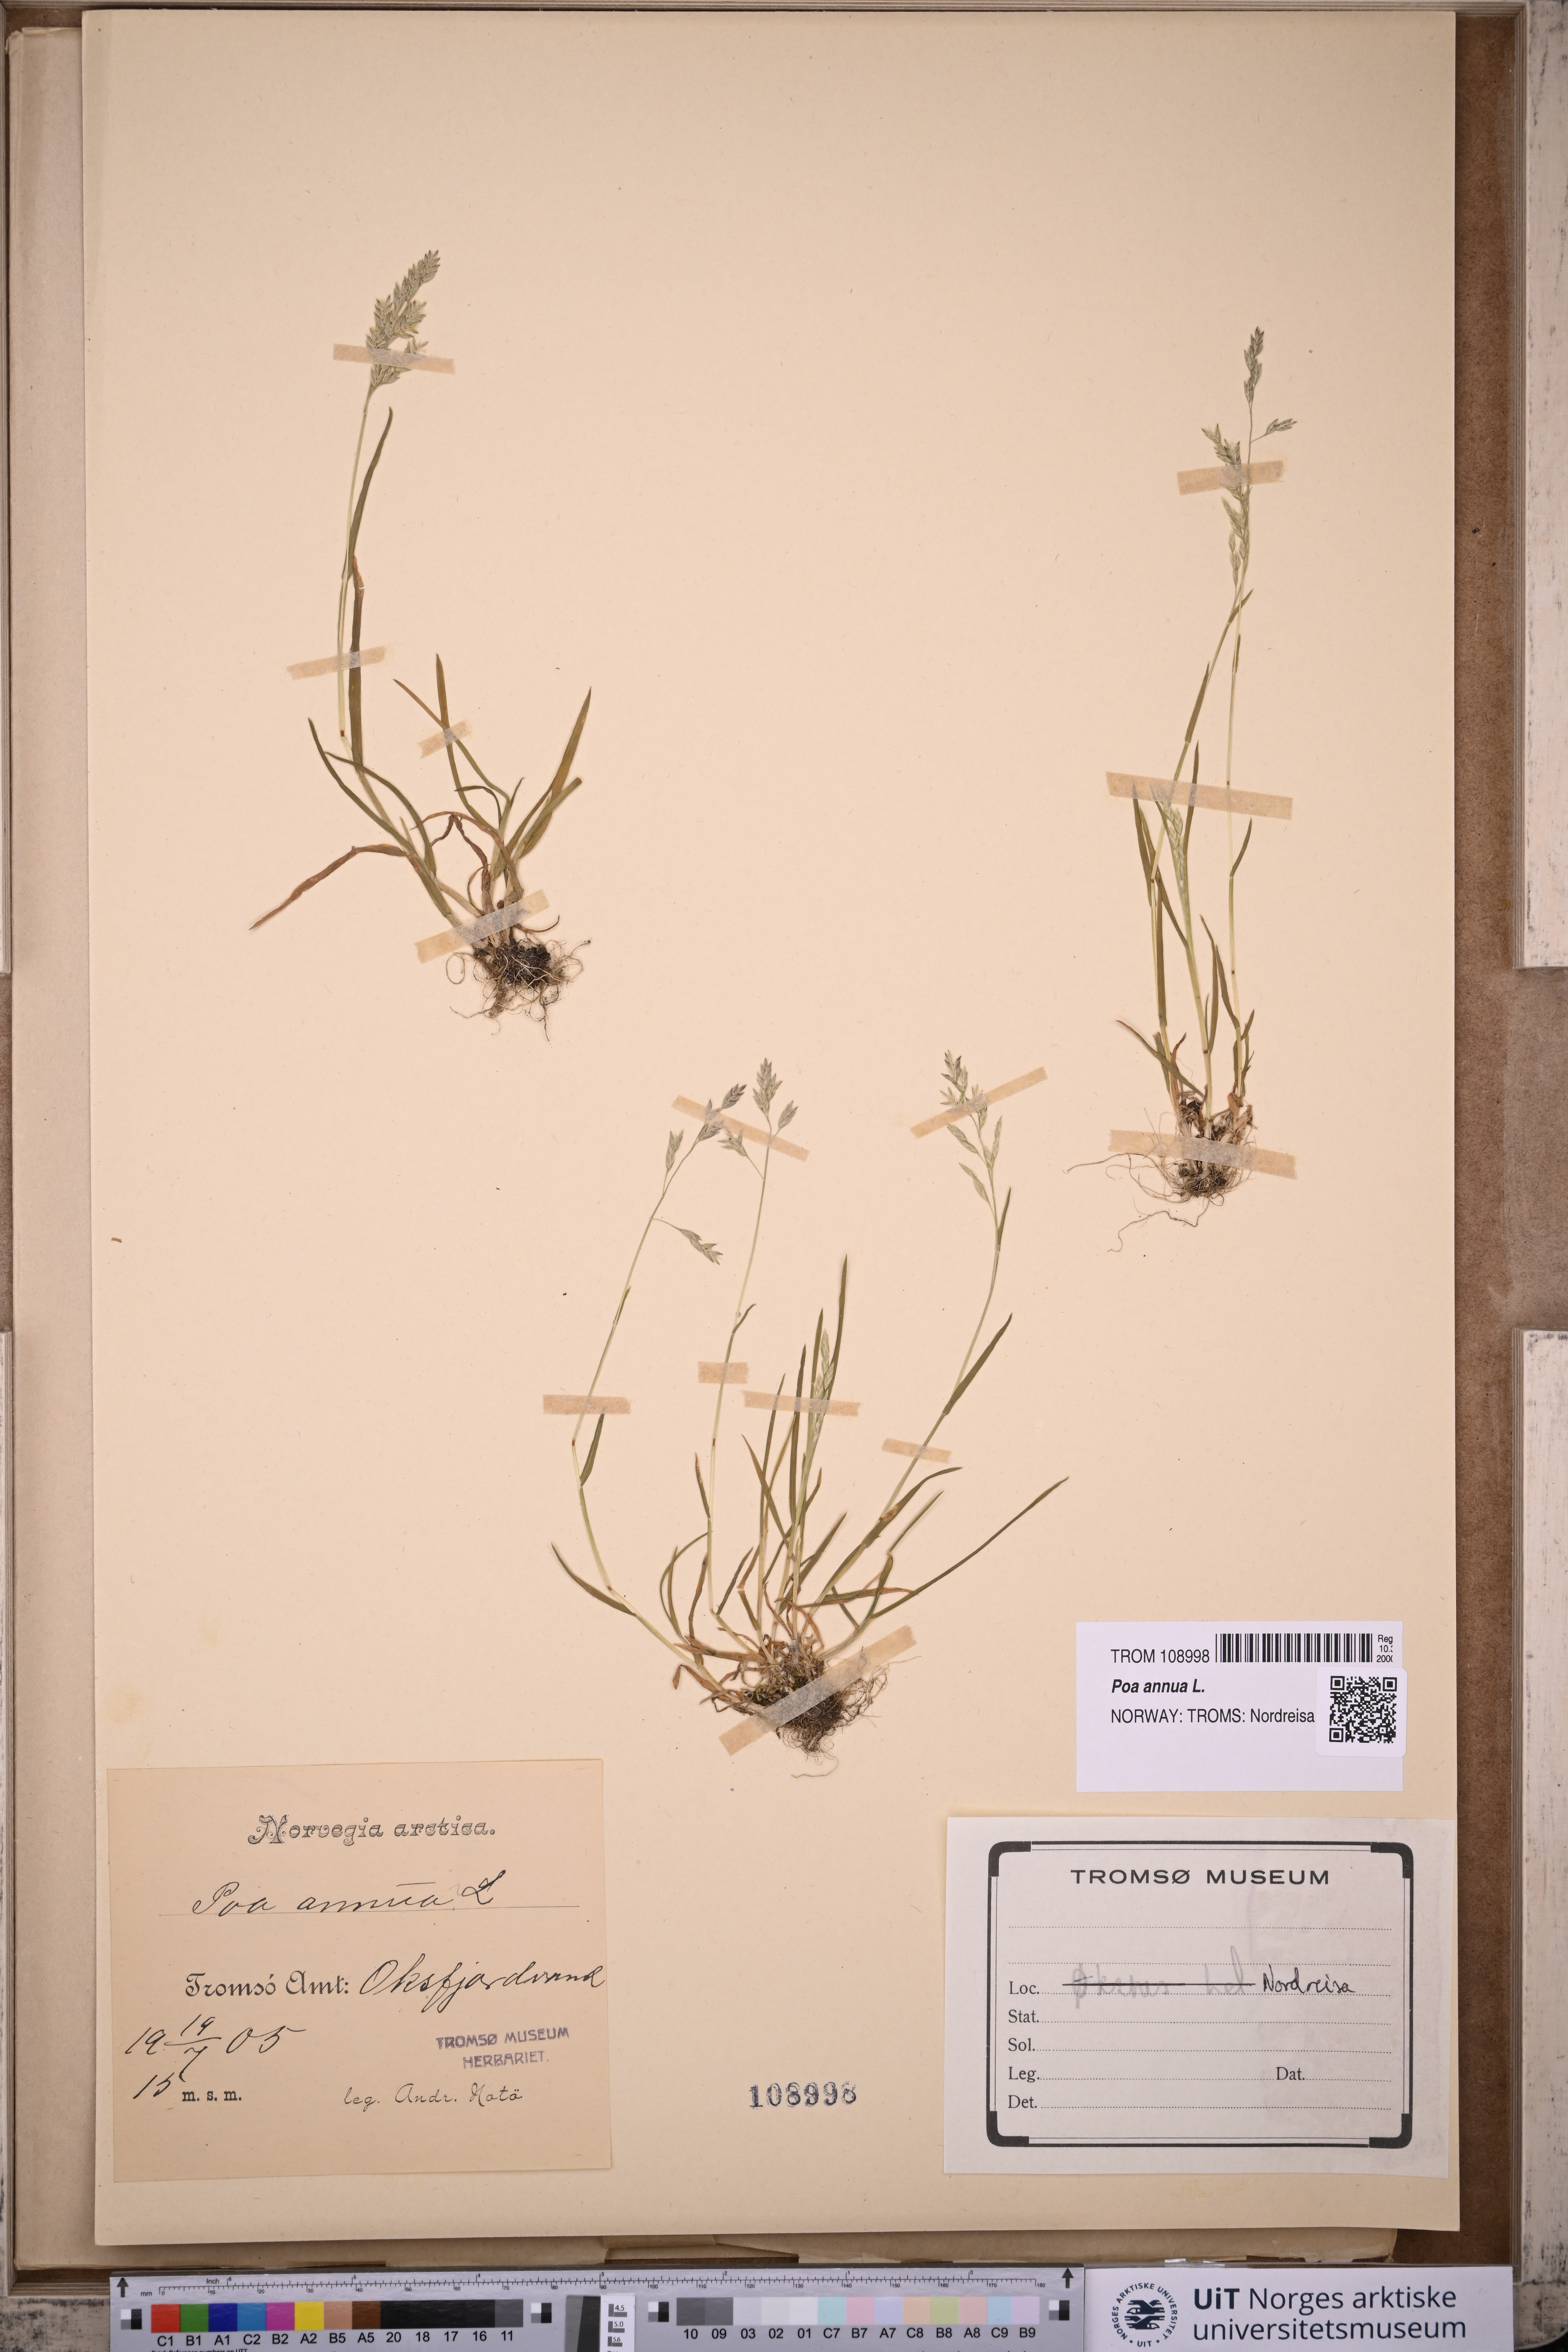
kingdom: Plantae
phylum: Tracheophyta
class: Liliopsida
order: Poales
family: Poaceae
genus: Poa
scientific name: Poa annua
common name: Annual bluegrass
